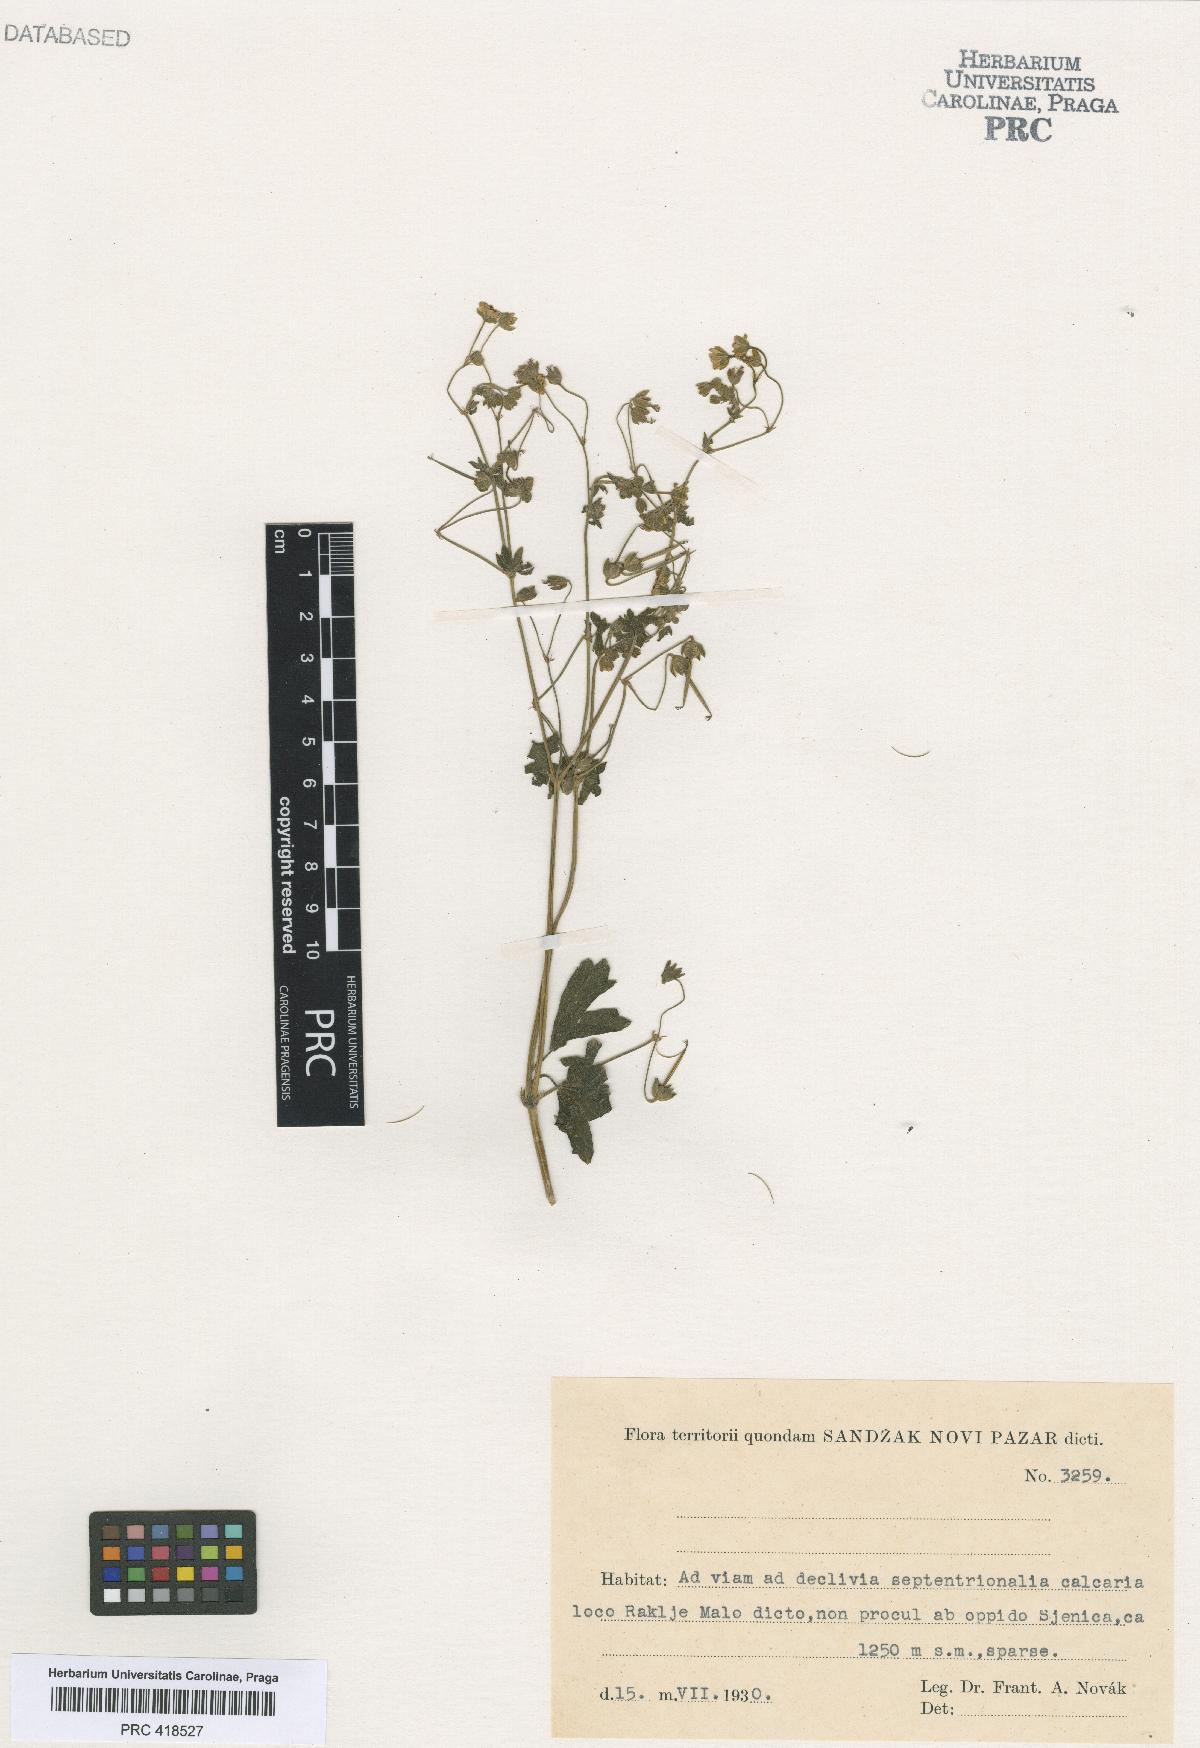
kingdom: Plantae
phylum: Tracheophyta
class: Magnoliopsida
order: Geraniales
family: Geraniaceae
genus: Geranium
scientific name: Geranium pyrenaicum
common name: Hedgerow crane's-bill
